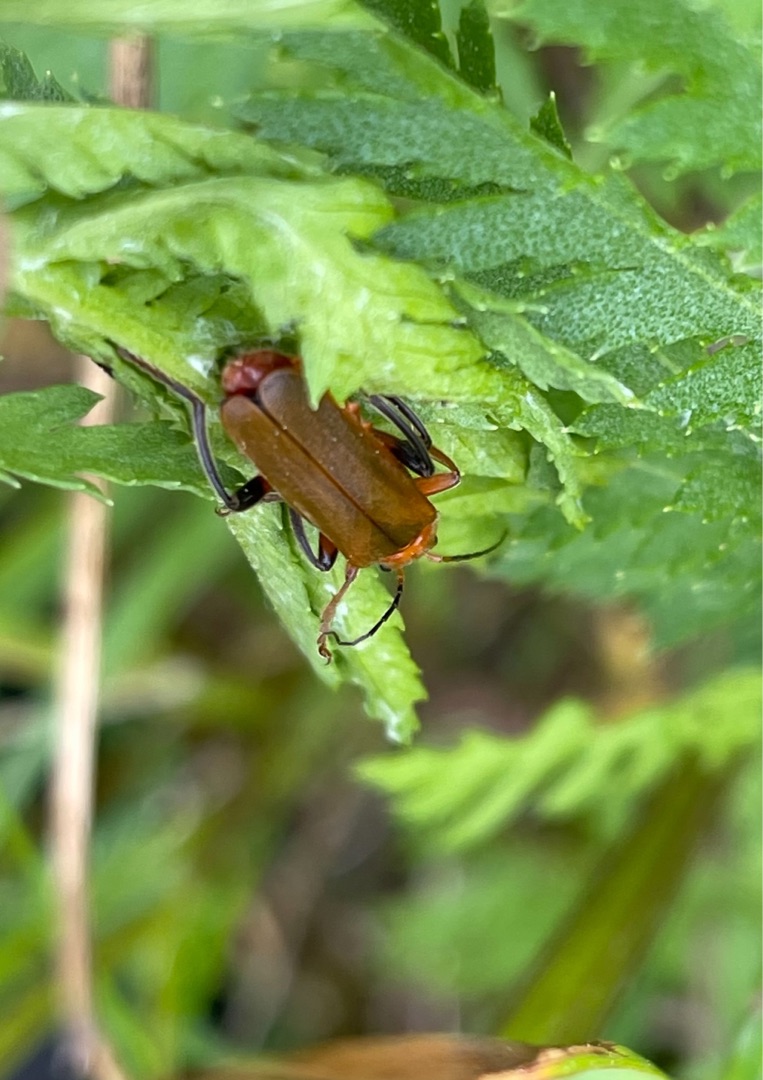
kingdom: Animalia
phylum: Arthropoda
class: Insecta
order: Coleoptera
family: Cantharidae
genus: Cantharis
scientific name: Cantharis livida
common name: Gul blødvinge
